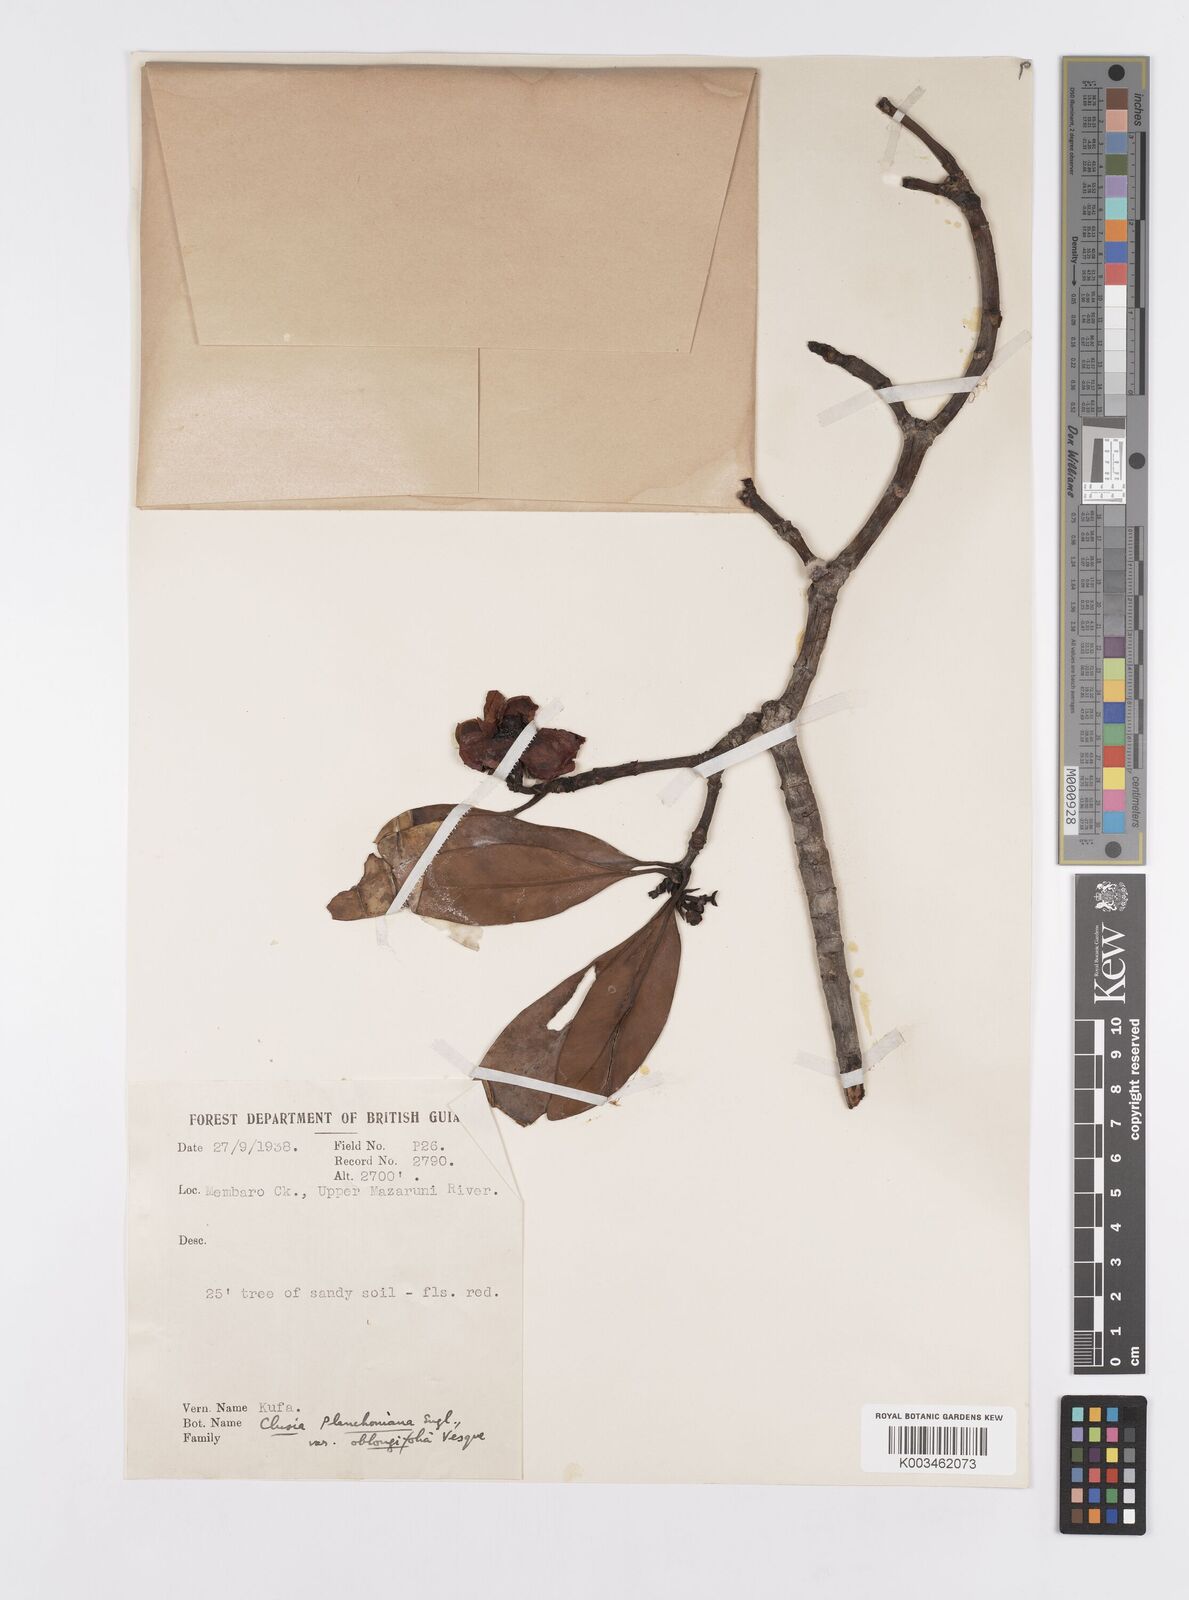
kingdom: Plantae
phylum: Tracheophyta
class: Magnoliopsida
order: Malpighiales
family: Clusiaceae
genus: Clusia
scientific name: Clusia schomburgkiana
